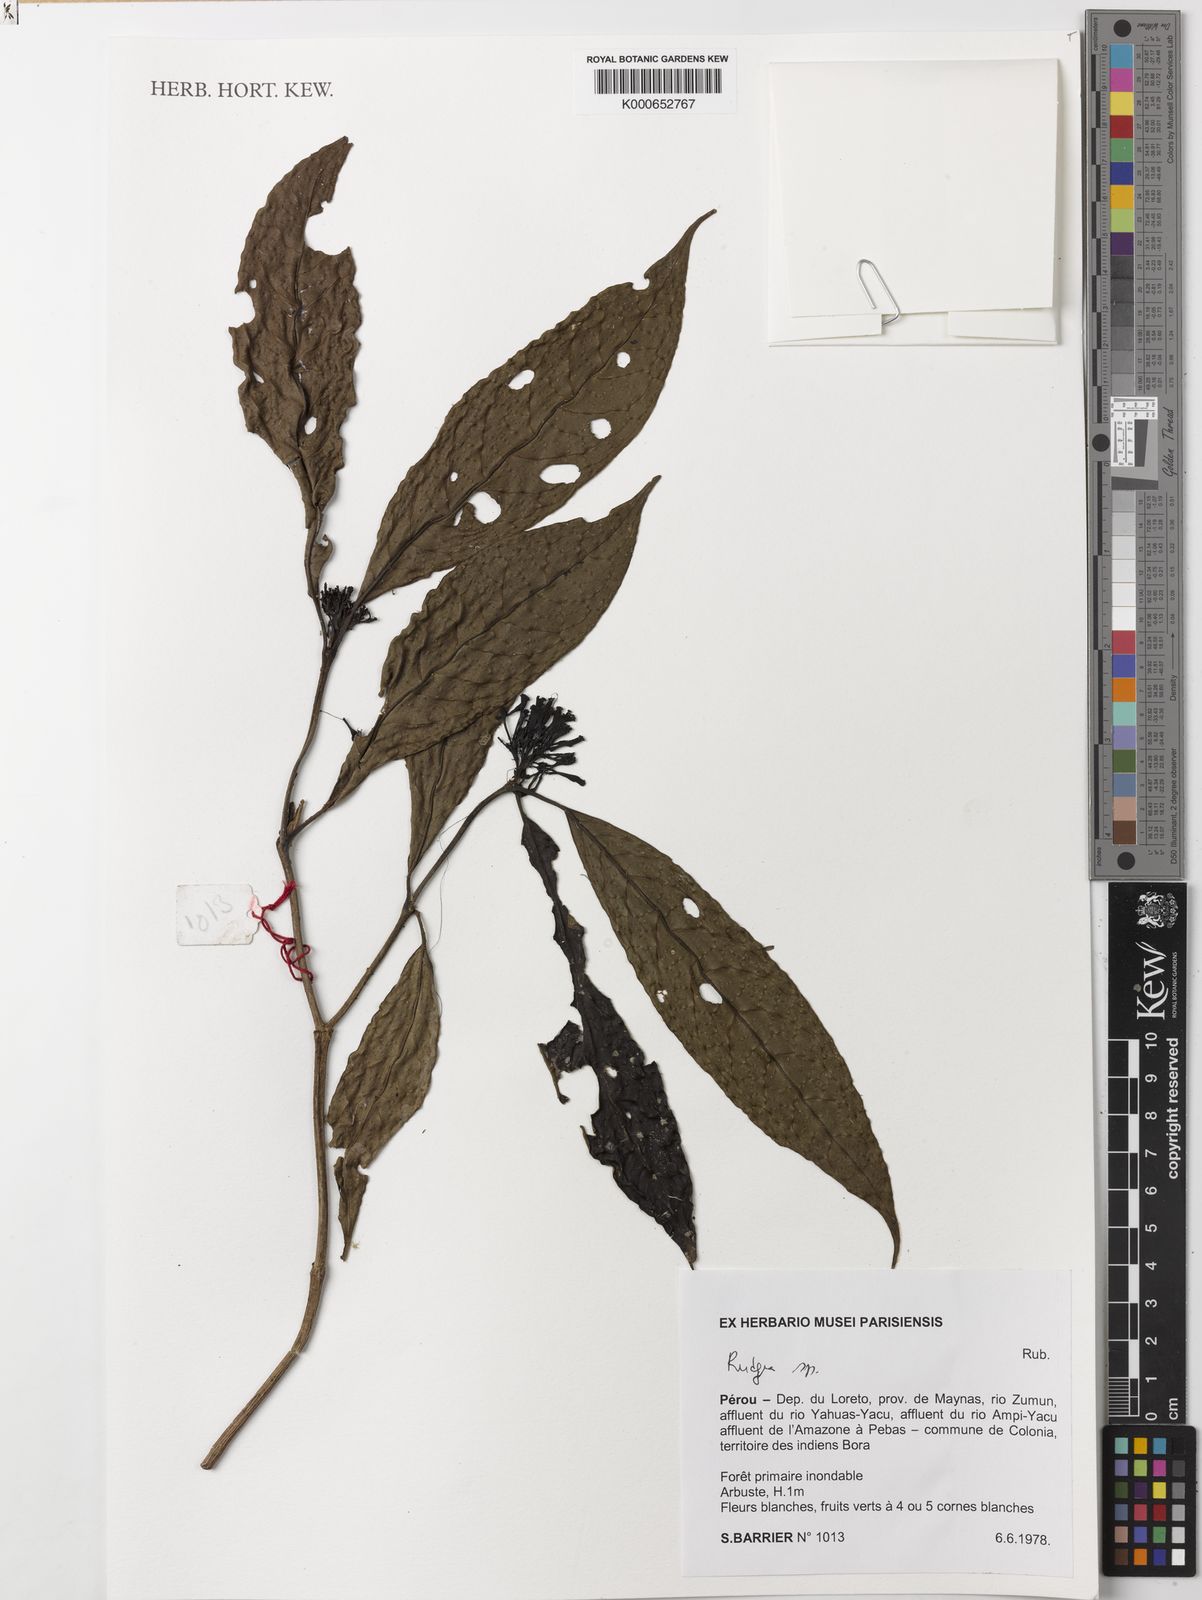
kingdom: Plantae
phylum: Tracheophyta
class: Magnoliopsida
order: Gentianales
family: Rubiaceae
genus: Rudgea
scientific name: Rudgea
